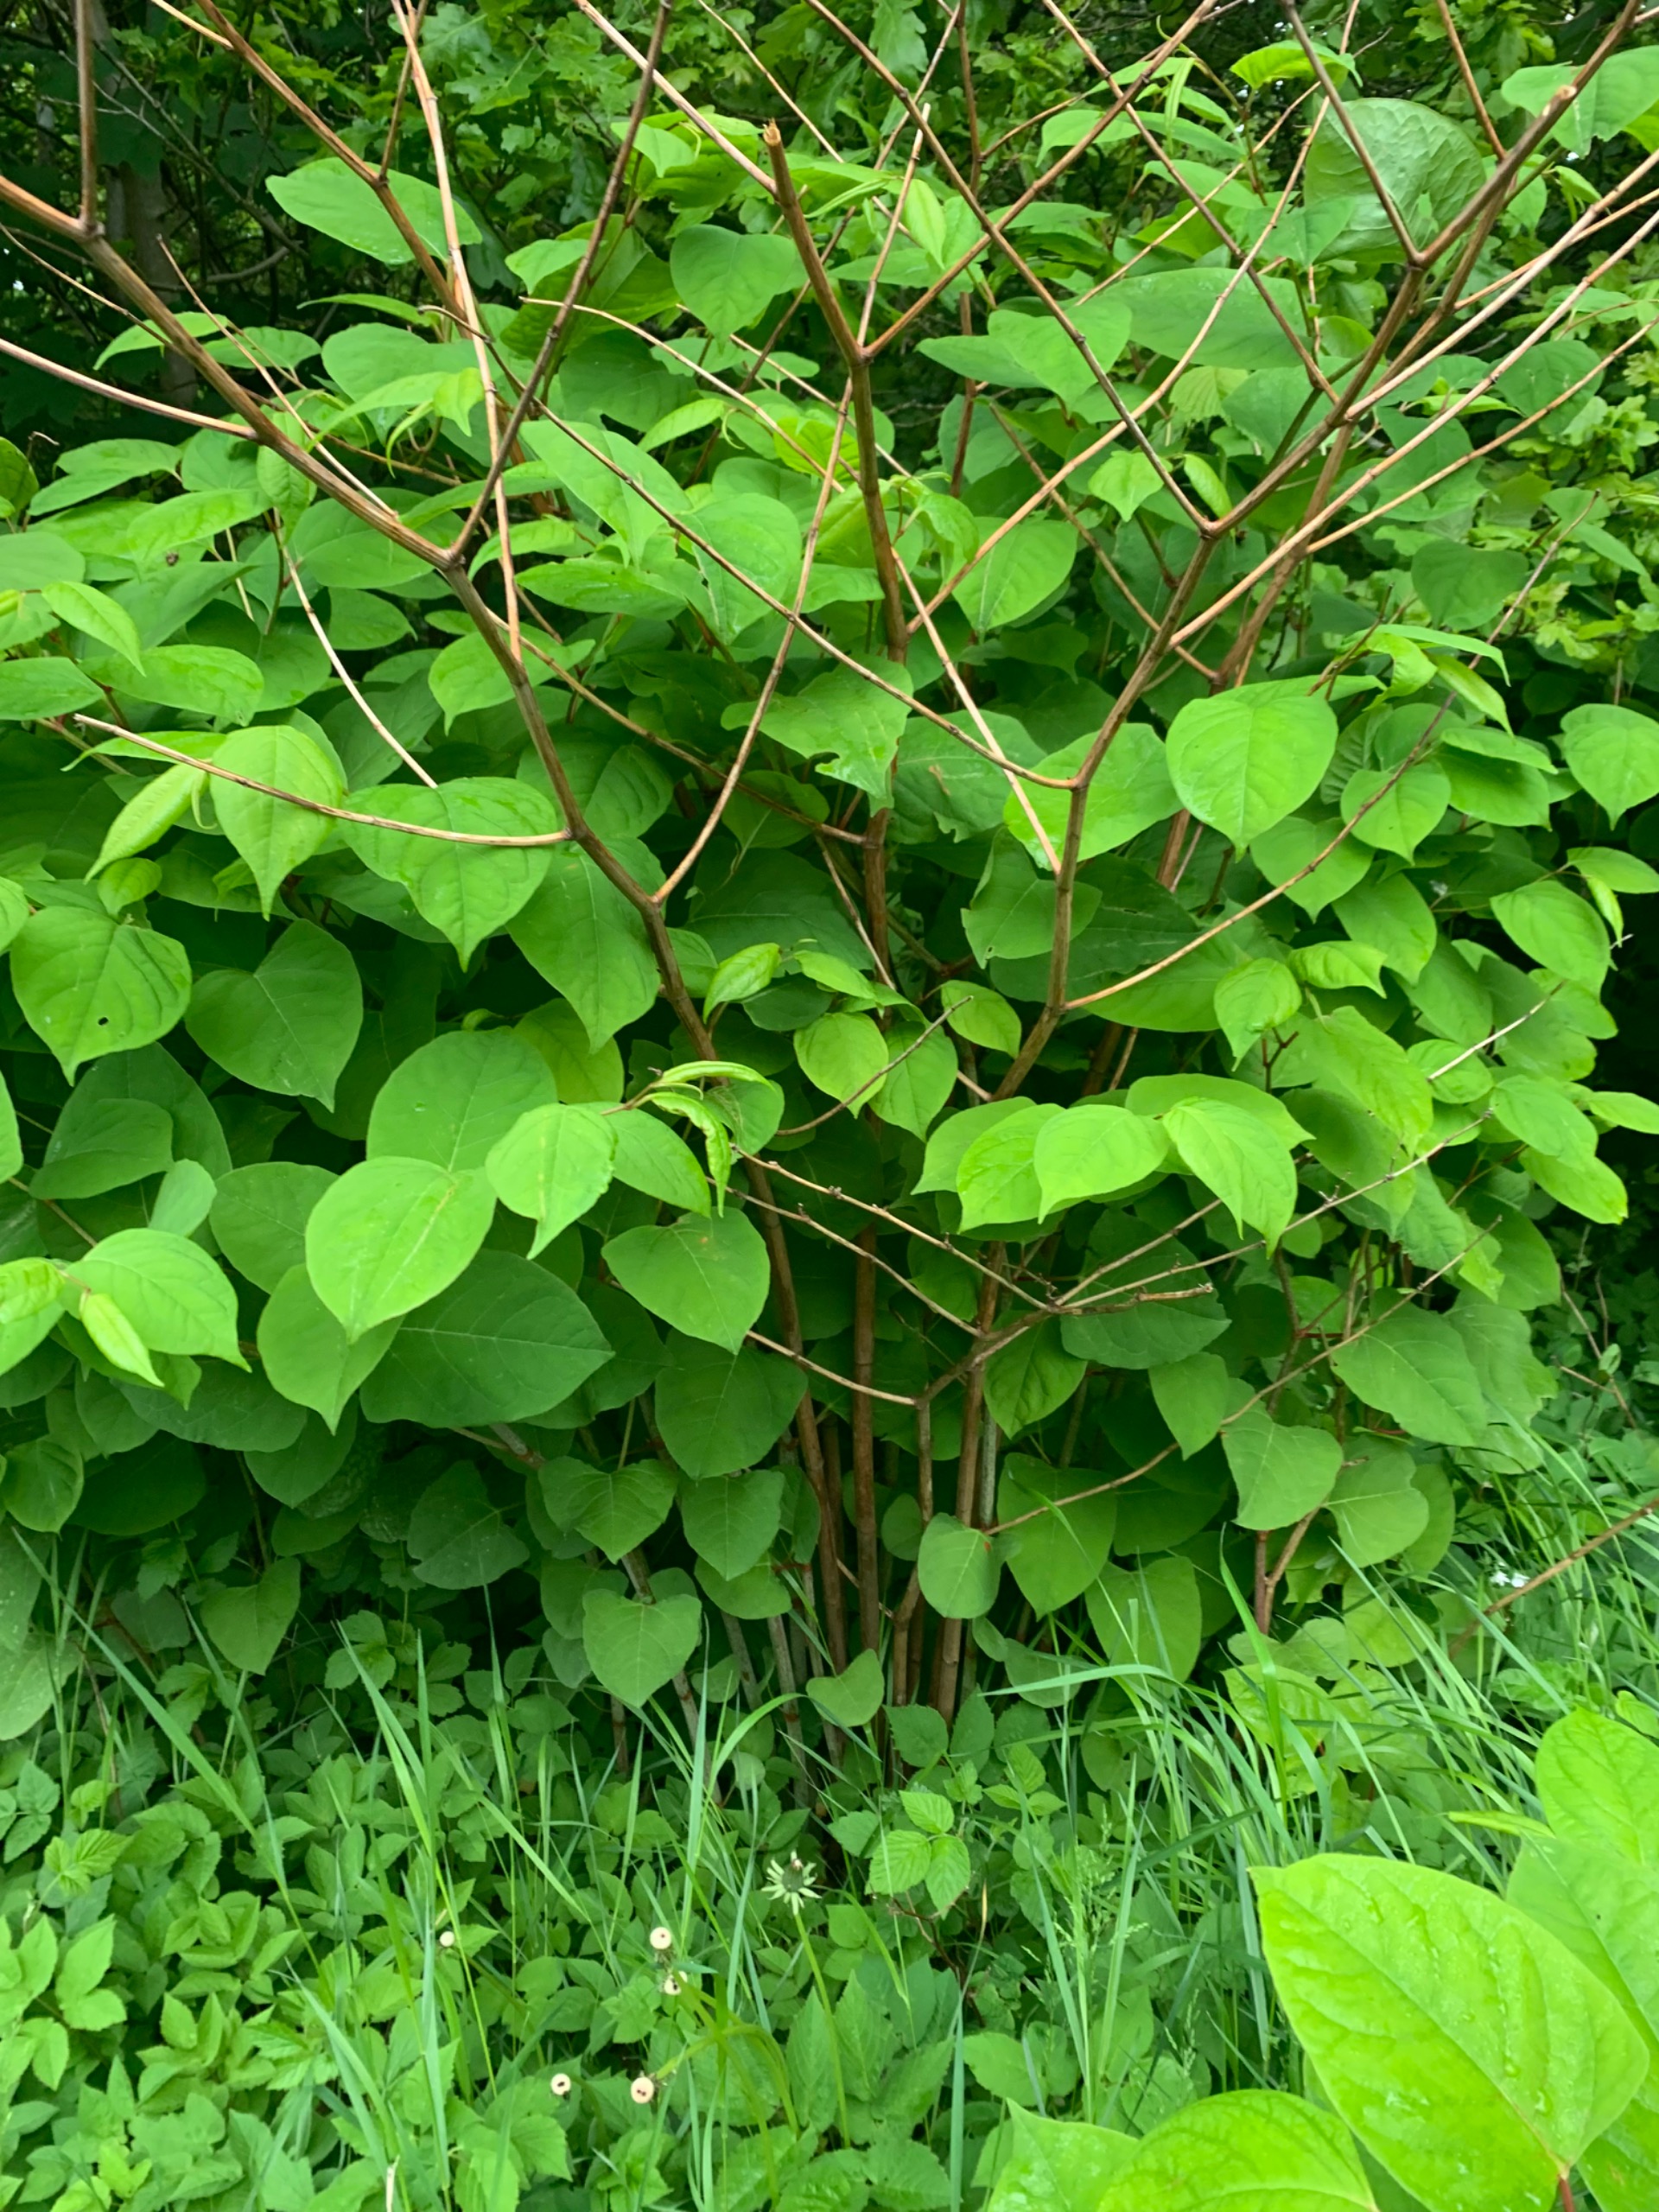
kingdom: Plantae
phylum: Tracheophyta
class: Magnoliopsida
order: Caryophyllales
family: Polygonaceae
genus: Reynoutria
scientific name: Reynoutria japonica
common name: Japan-pileurt
